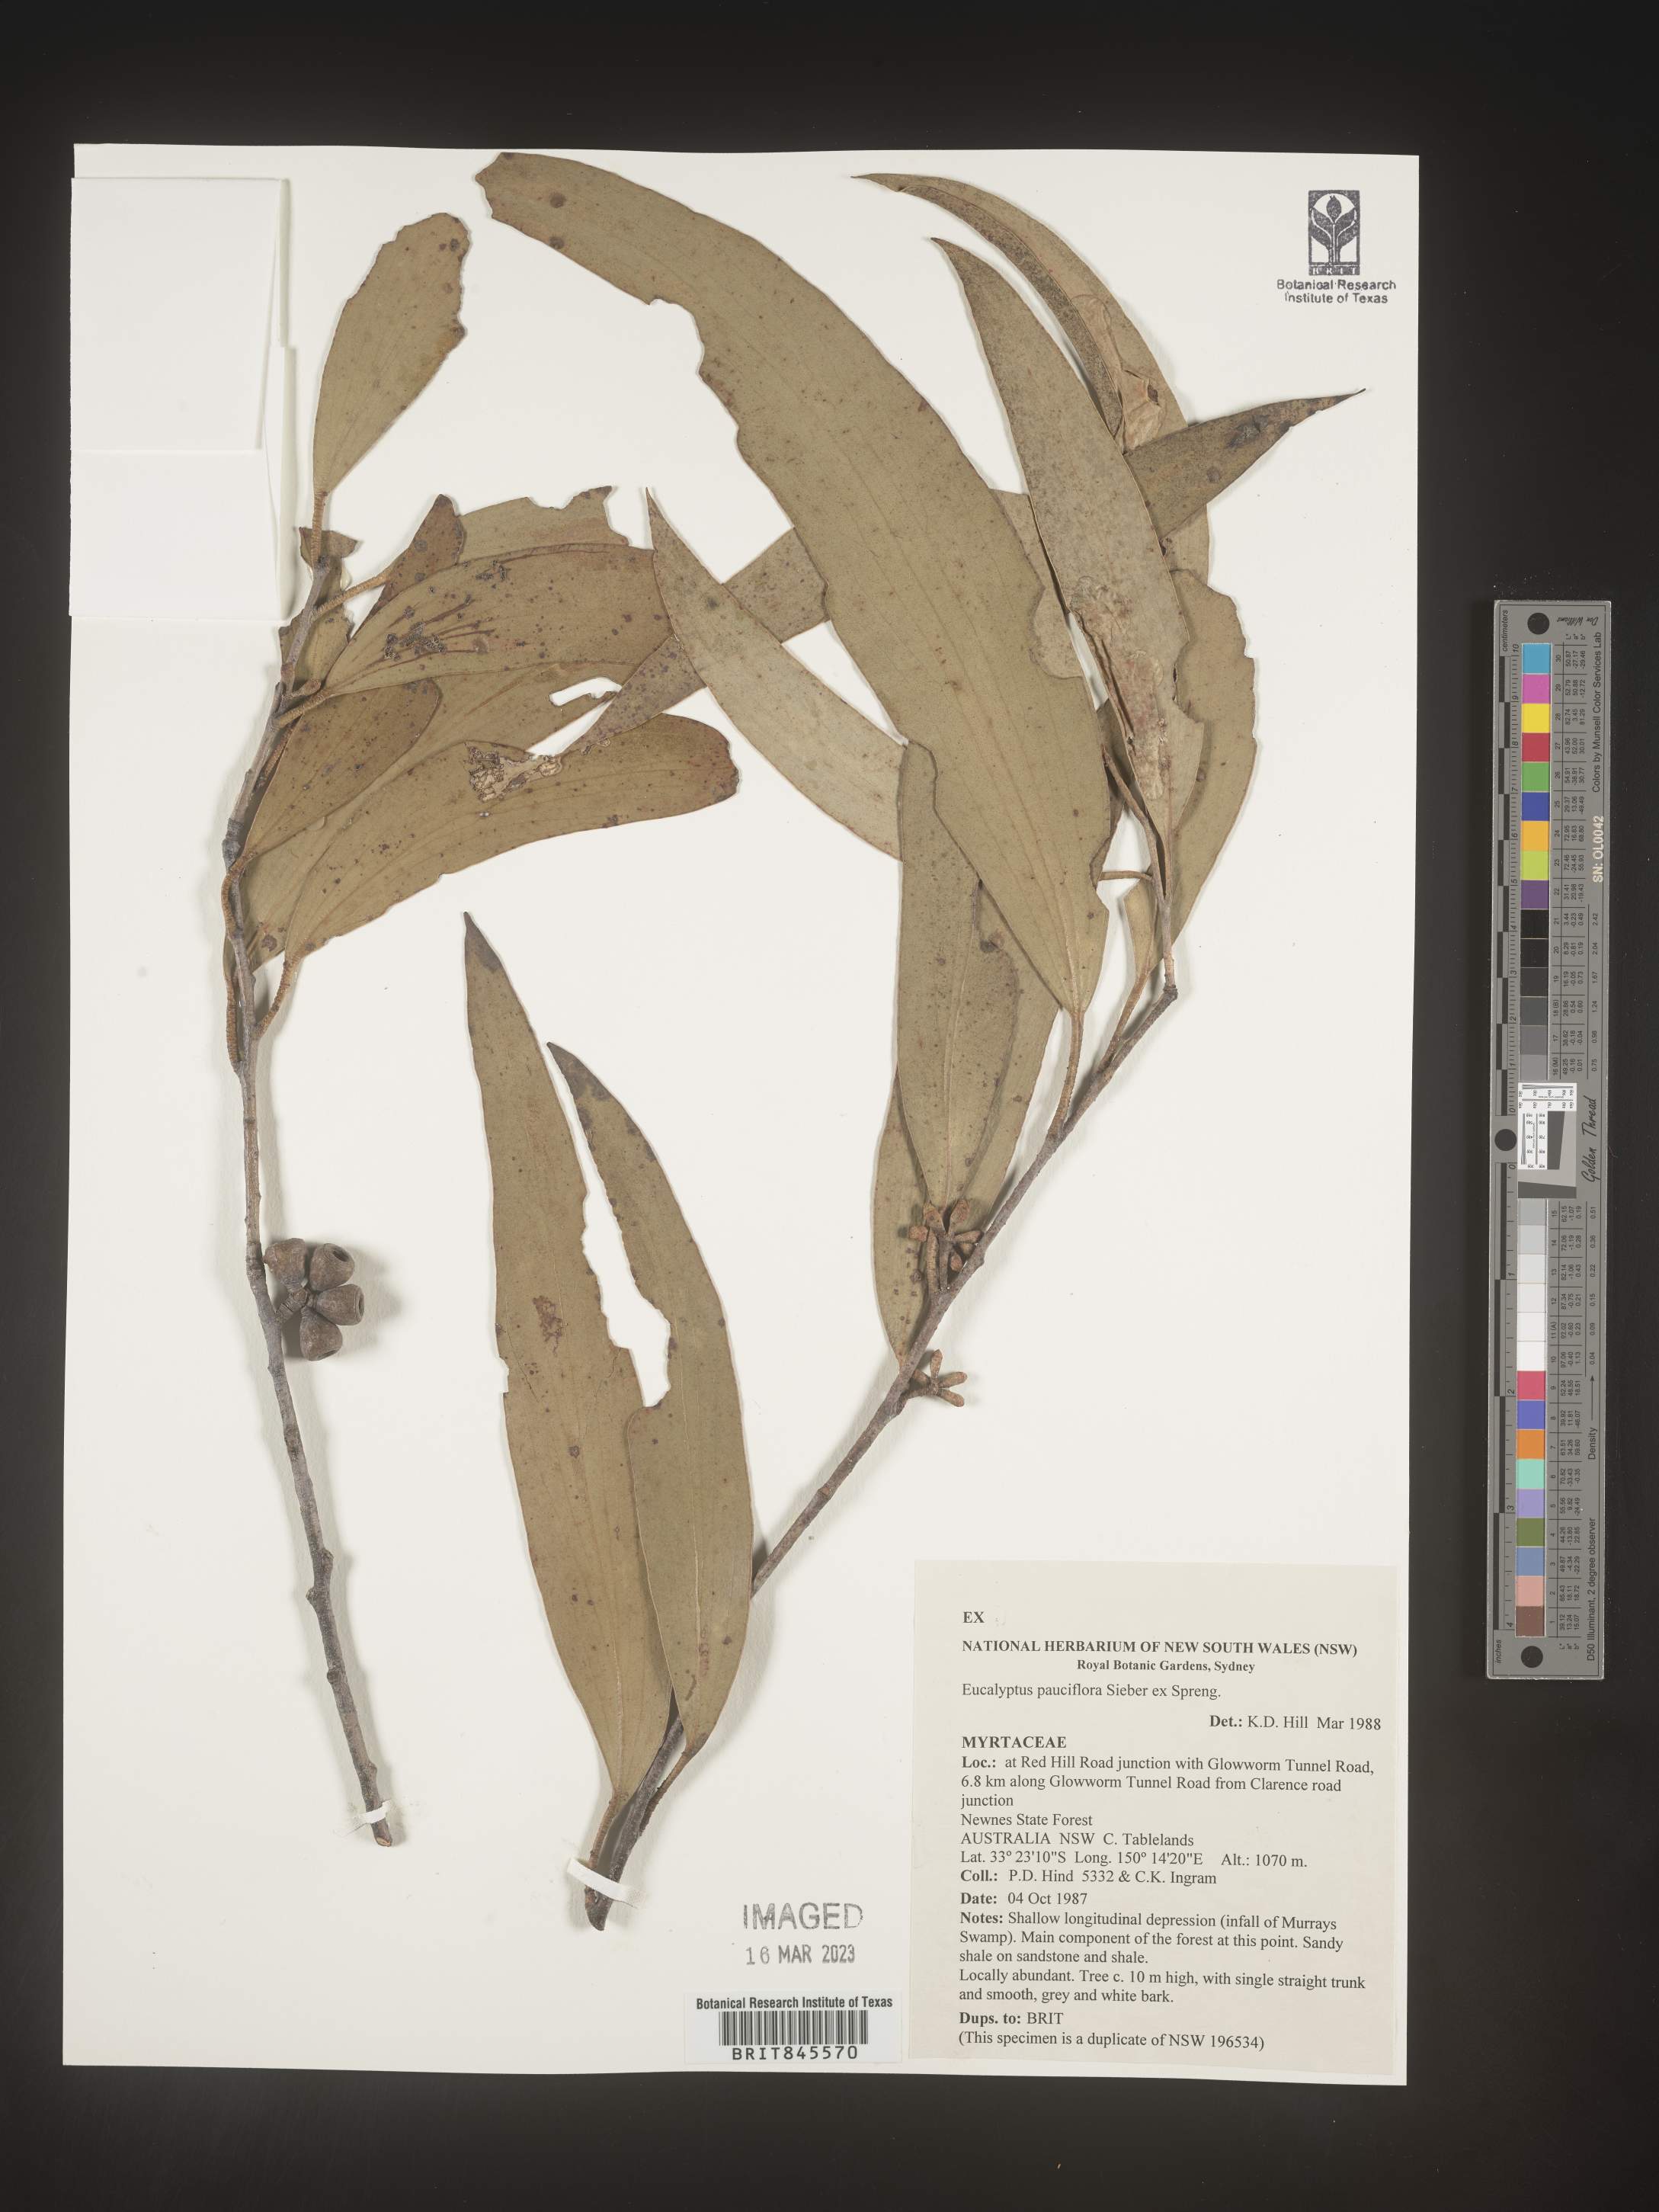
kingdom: Plantae
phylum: Tracheophyta
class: Magnoliopsida
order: Myrtales
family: Myrtaceae
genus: Eucalyptus
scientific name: Eucalyptus
